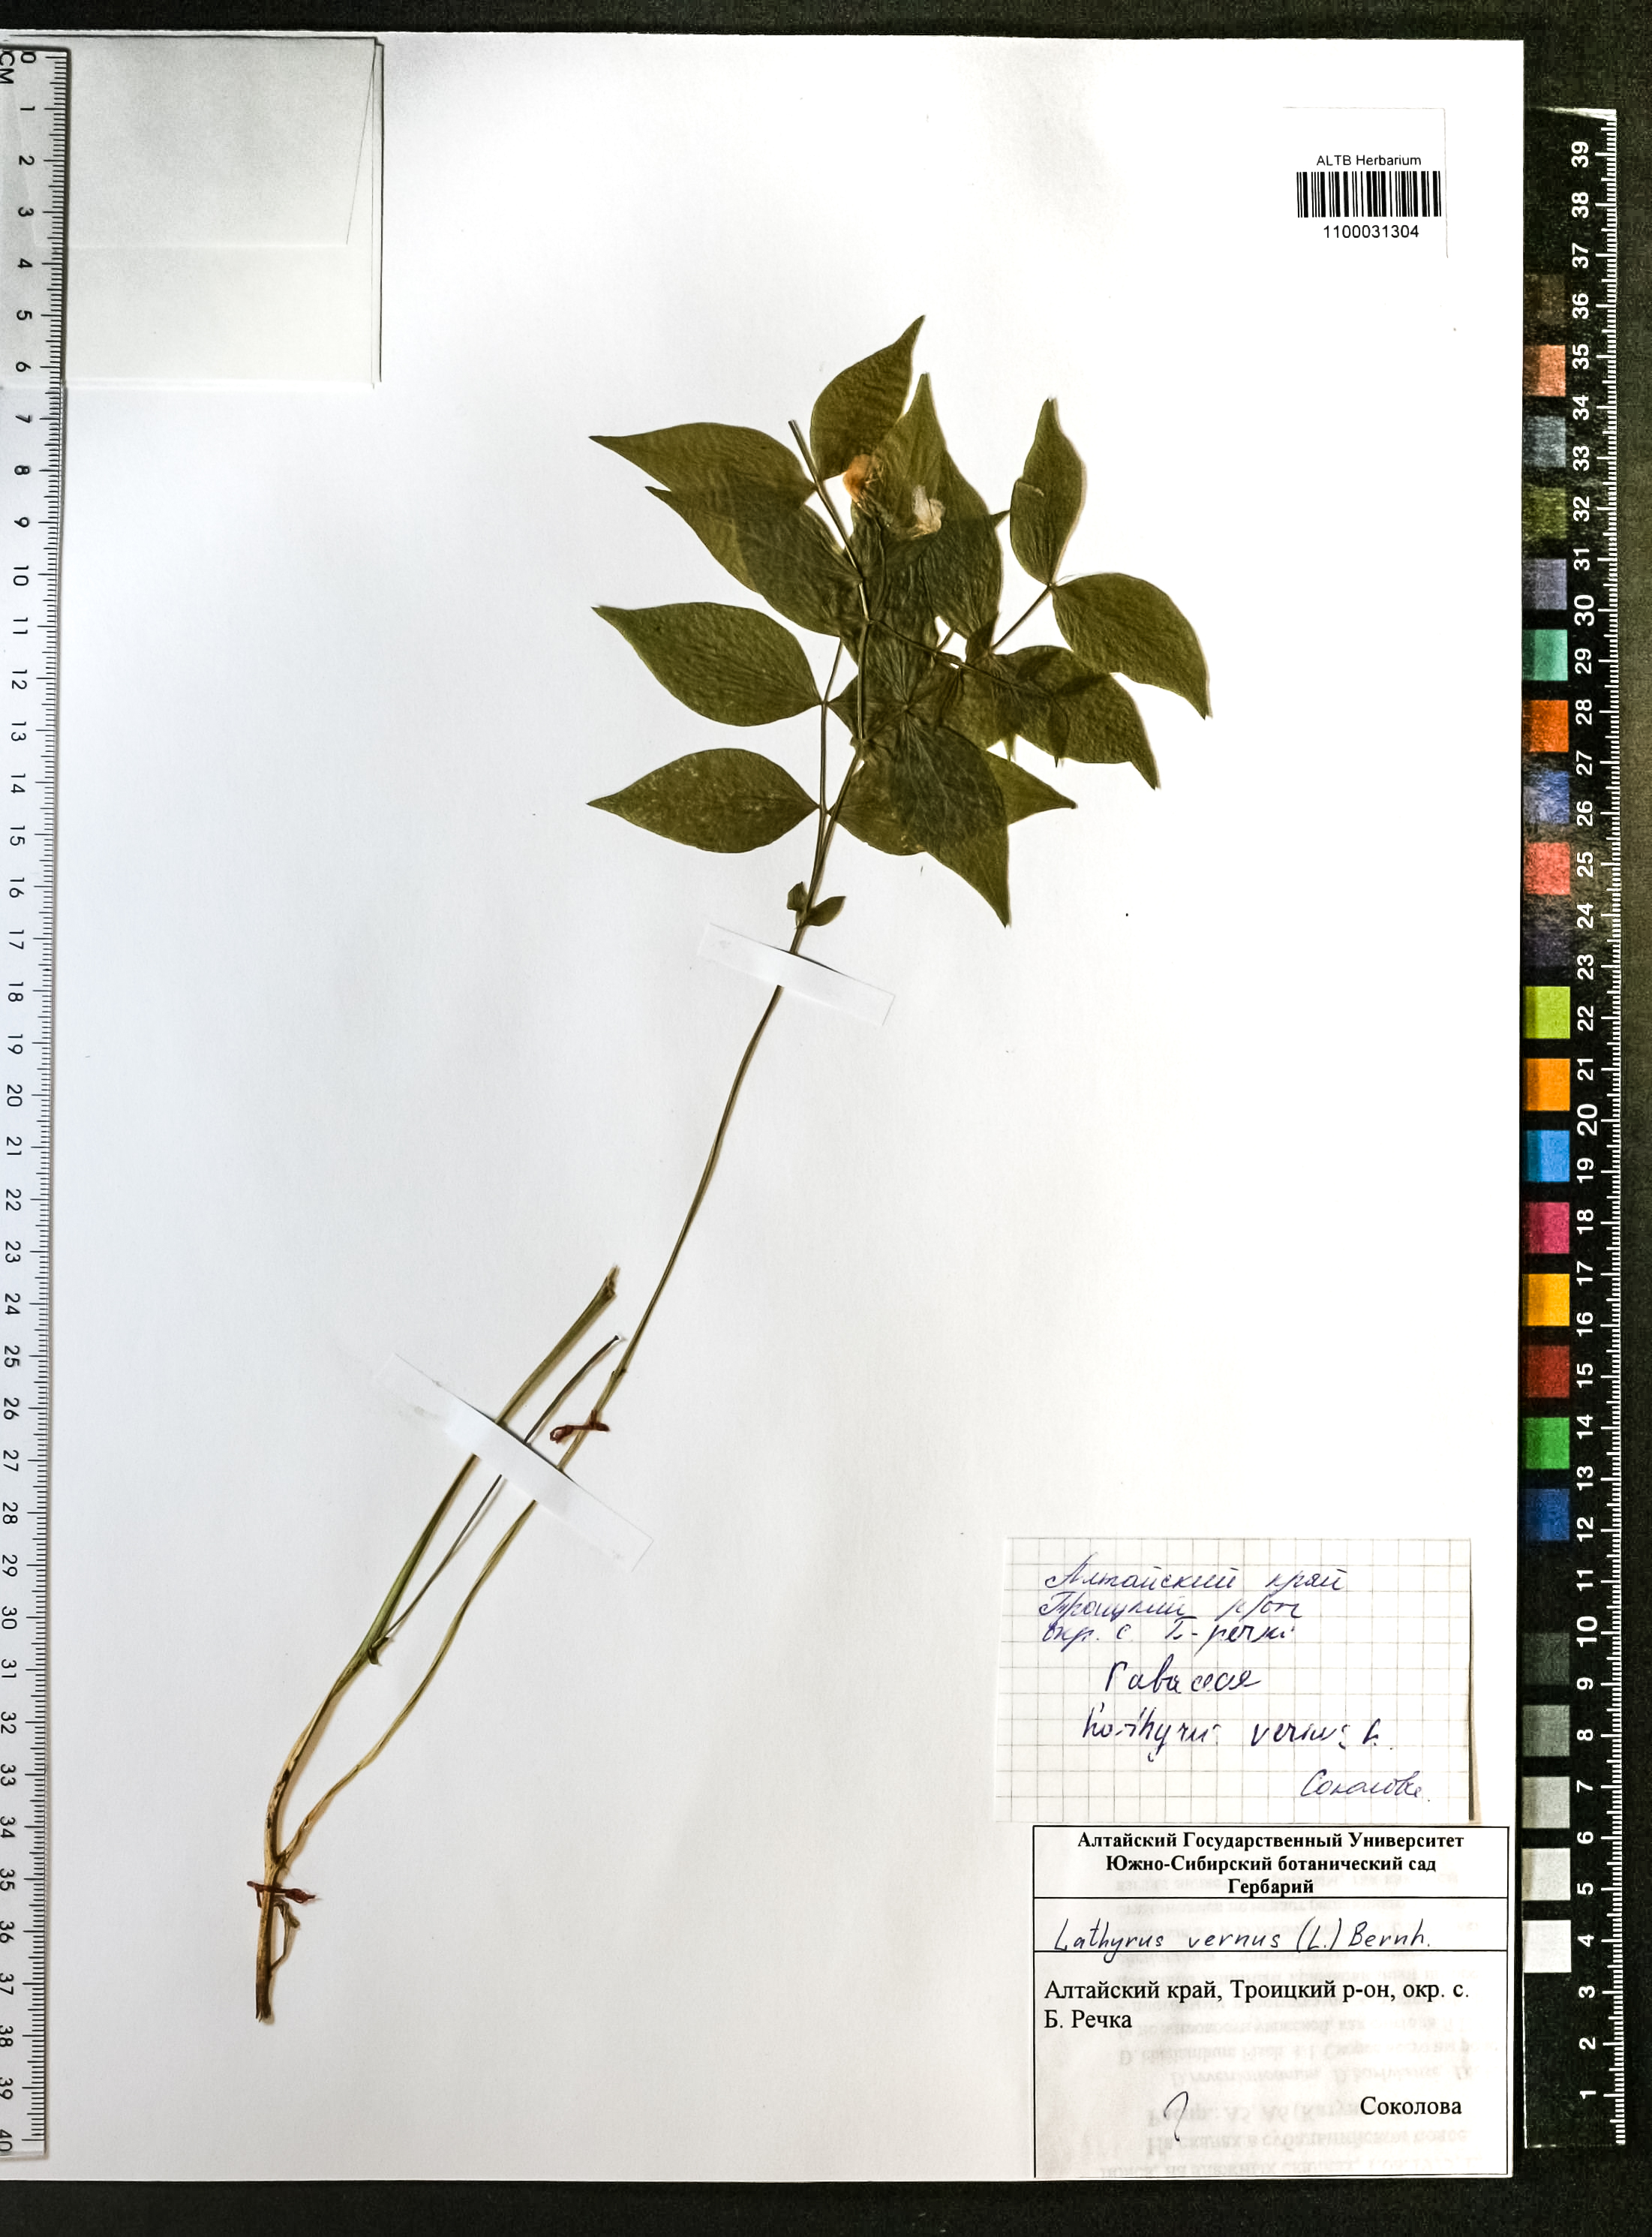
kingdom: Plantae
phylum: Tracheophyta
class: Magnoliopsida
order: Fabales
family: Fabaceae
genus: Lathyrus
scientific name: Lathyrus vernus
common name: Spring pea
